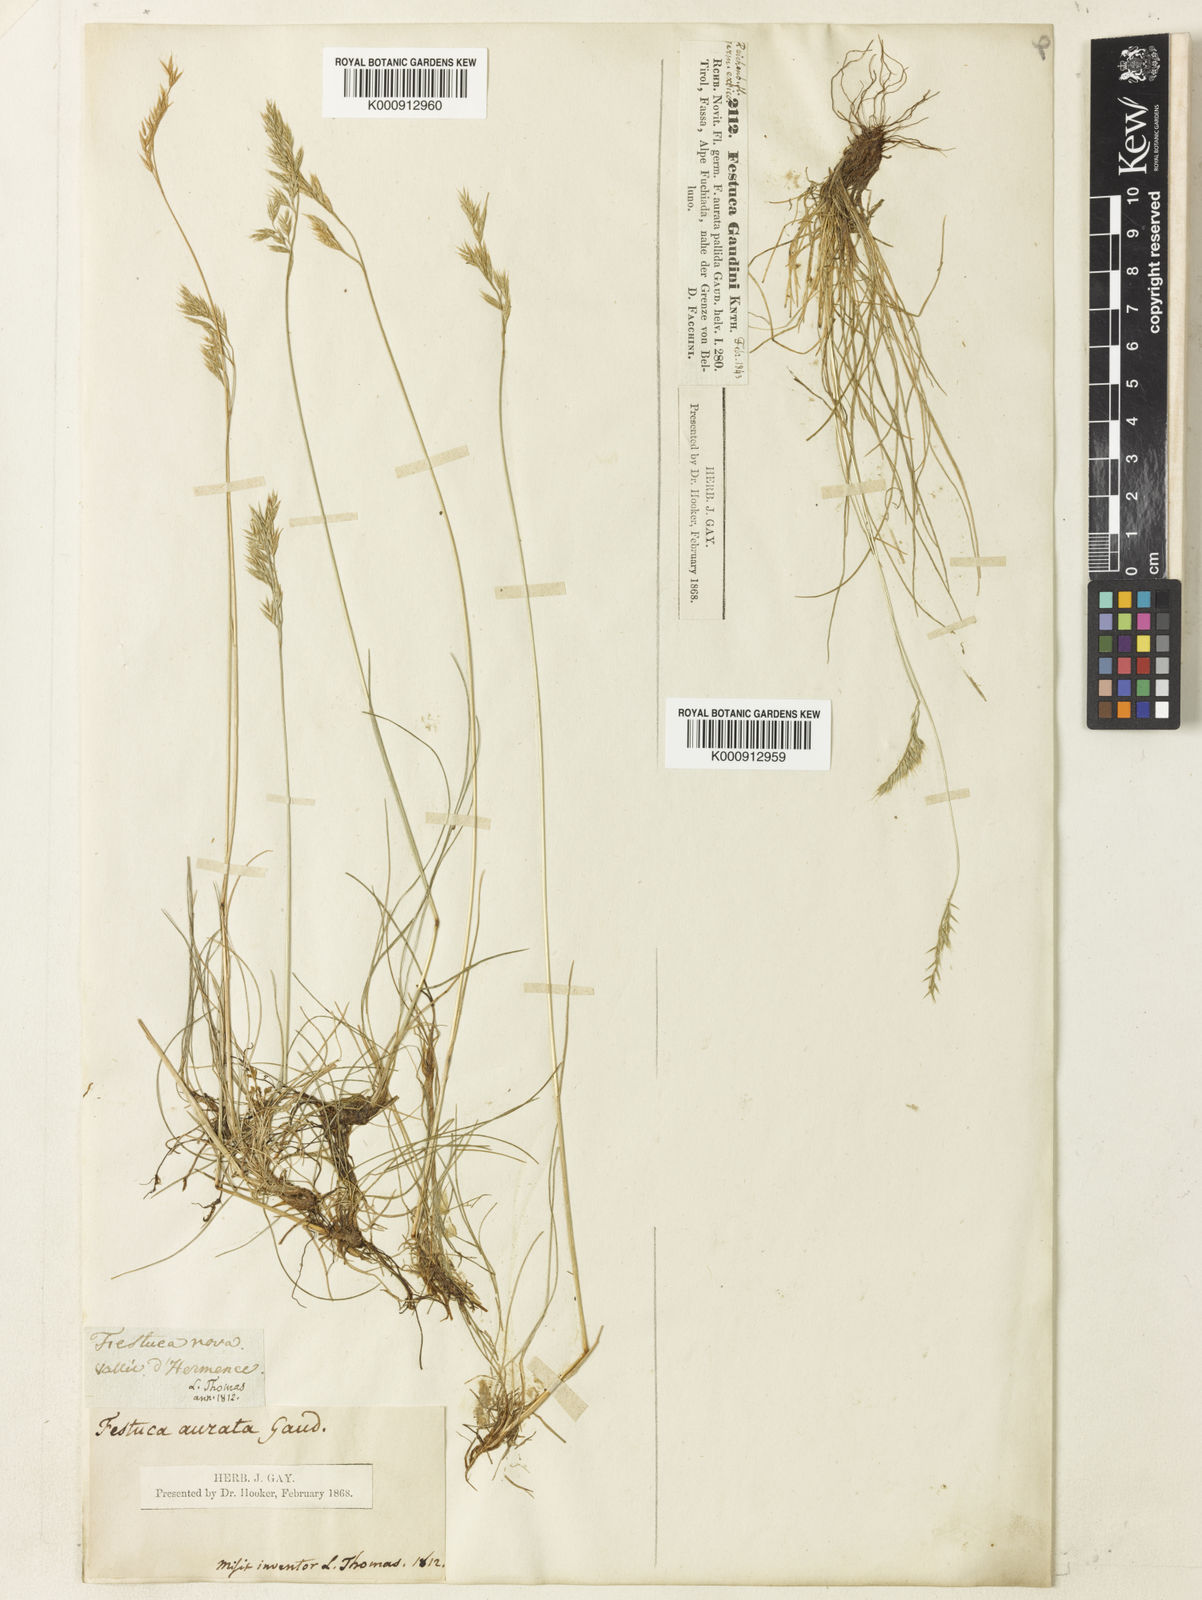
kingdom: Plantae
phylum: Tracheophyta
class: Liliopsida
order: Poales
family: Poaceae
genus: Festuca
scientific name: Festuca violacea
